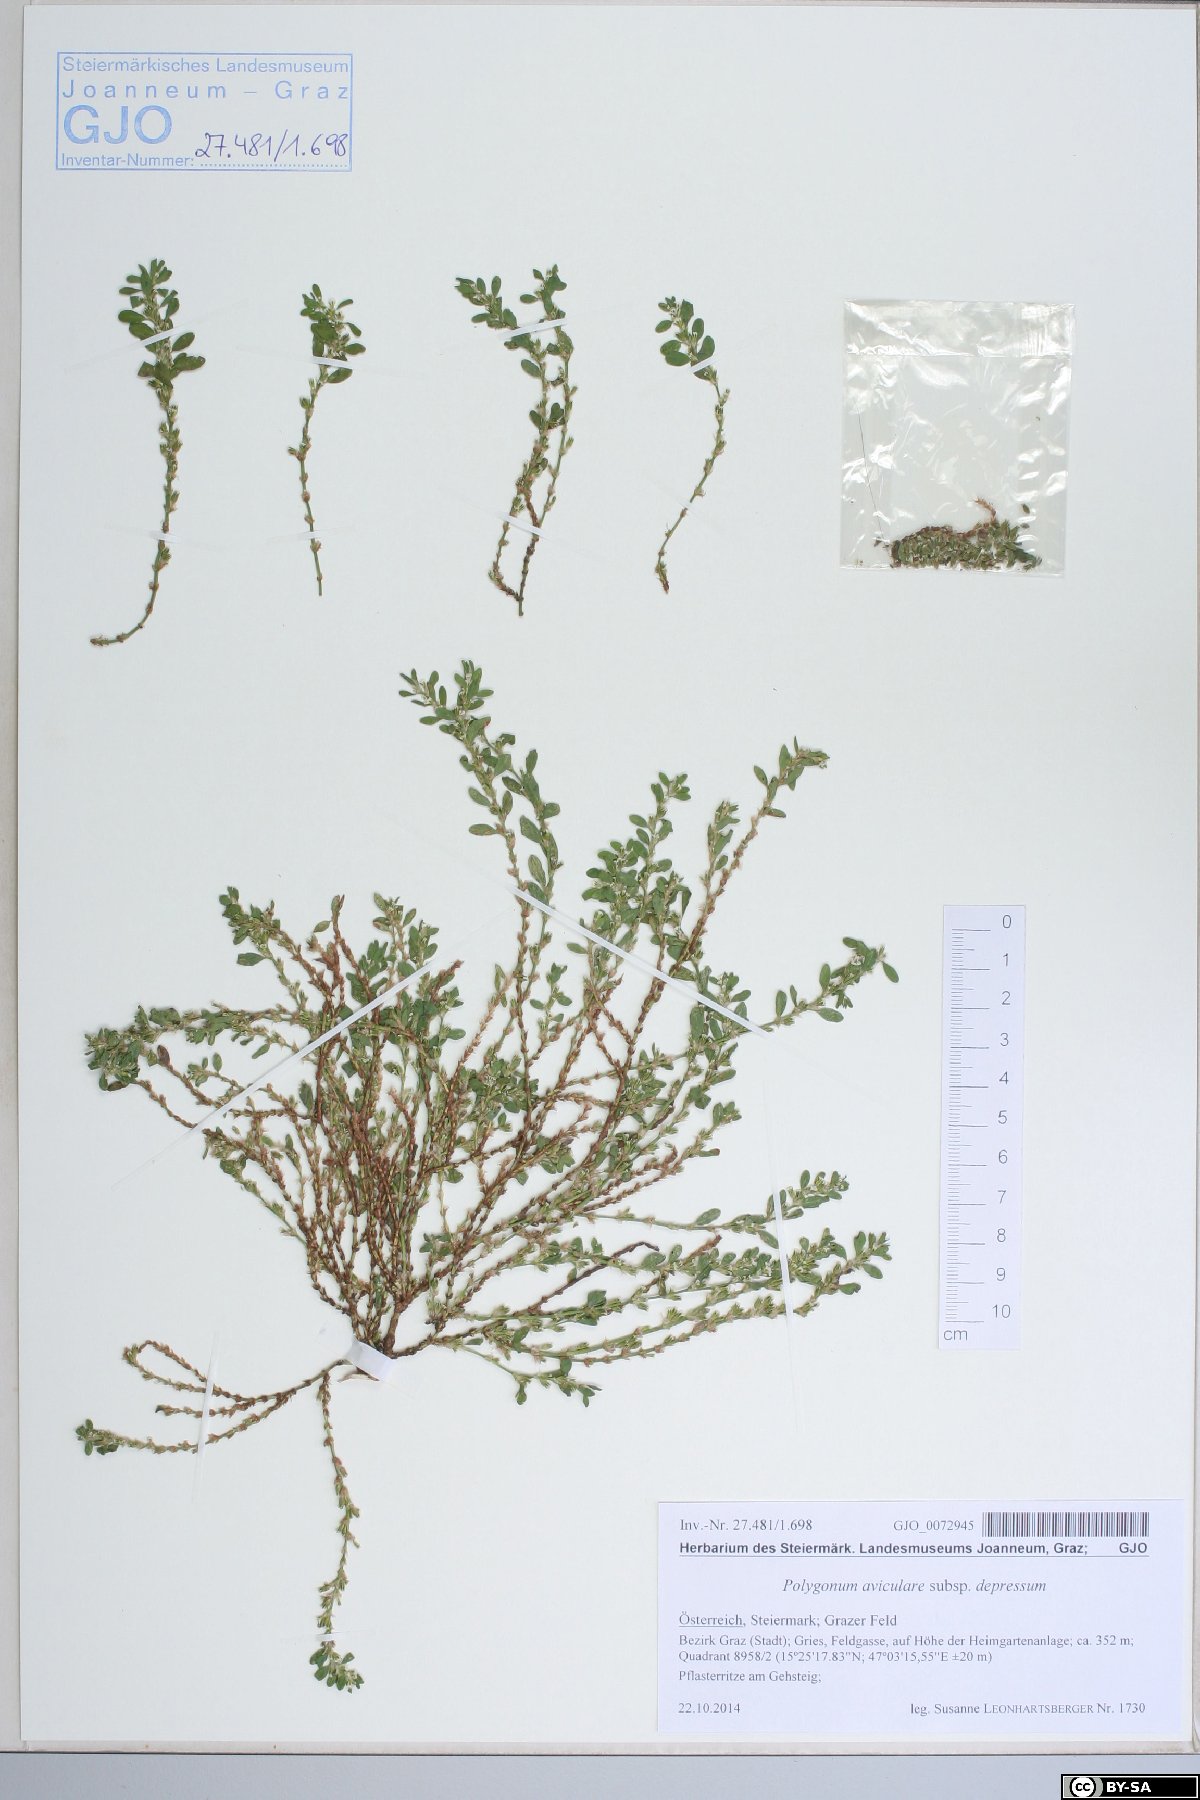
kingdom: Plantae
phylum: Tracheophyta
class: Magnoliopsida
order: Caryophyllales
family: Polygonaceae
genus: Polygonum
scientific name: Polygonum arenastrum
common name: Equal-leaved knotgrass
